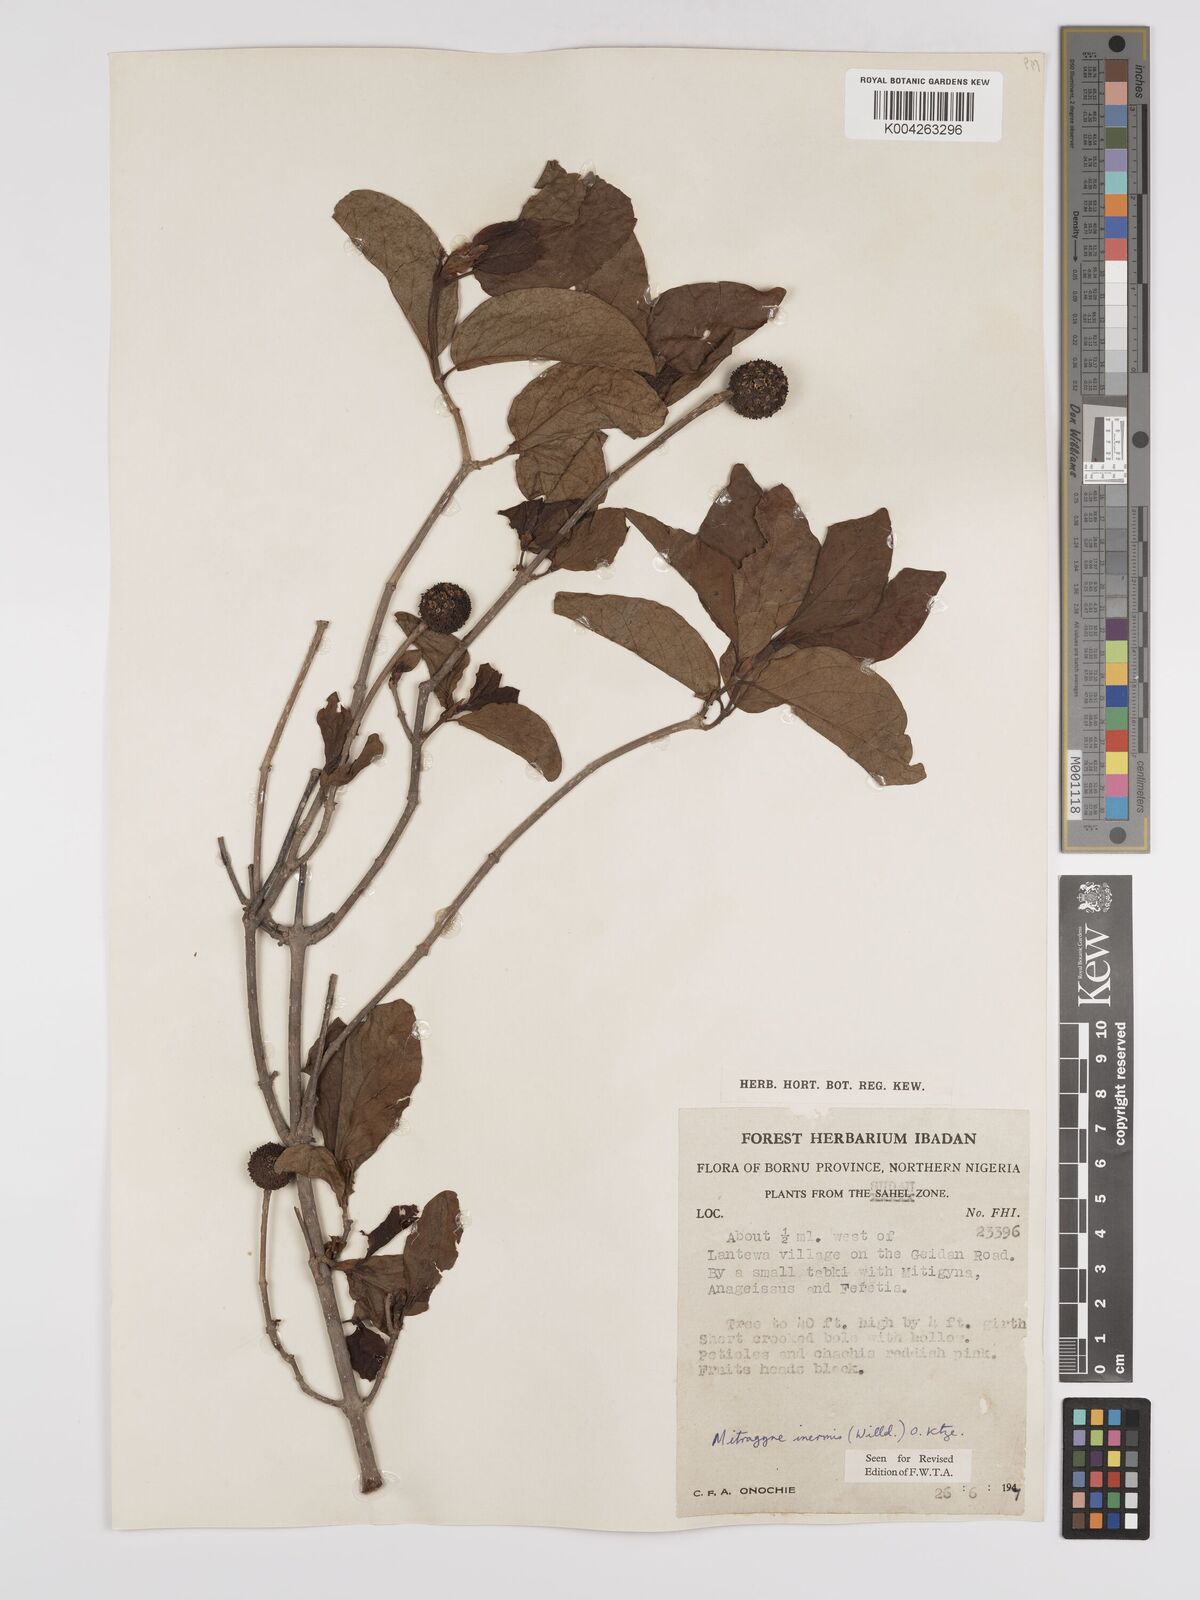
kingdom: Plantae
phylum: Tracheophyta
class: Magnoliopsida
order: Gentianales
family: Rubiaceae
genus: Mitragyna
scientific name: Mitragyna inermis
